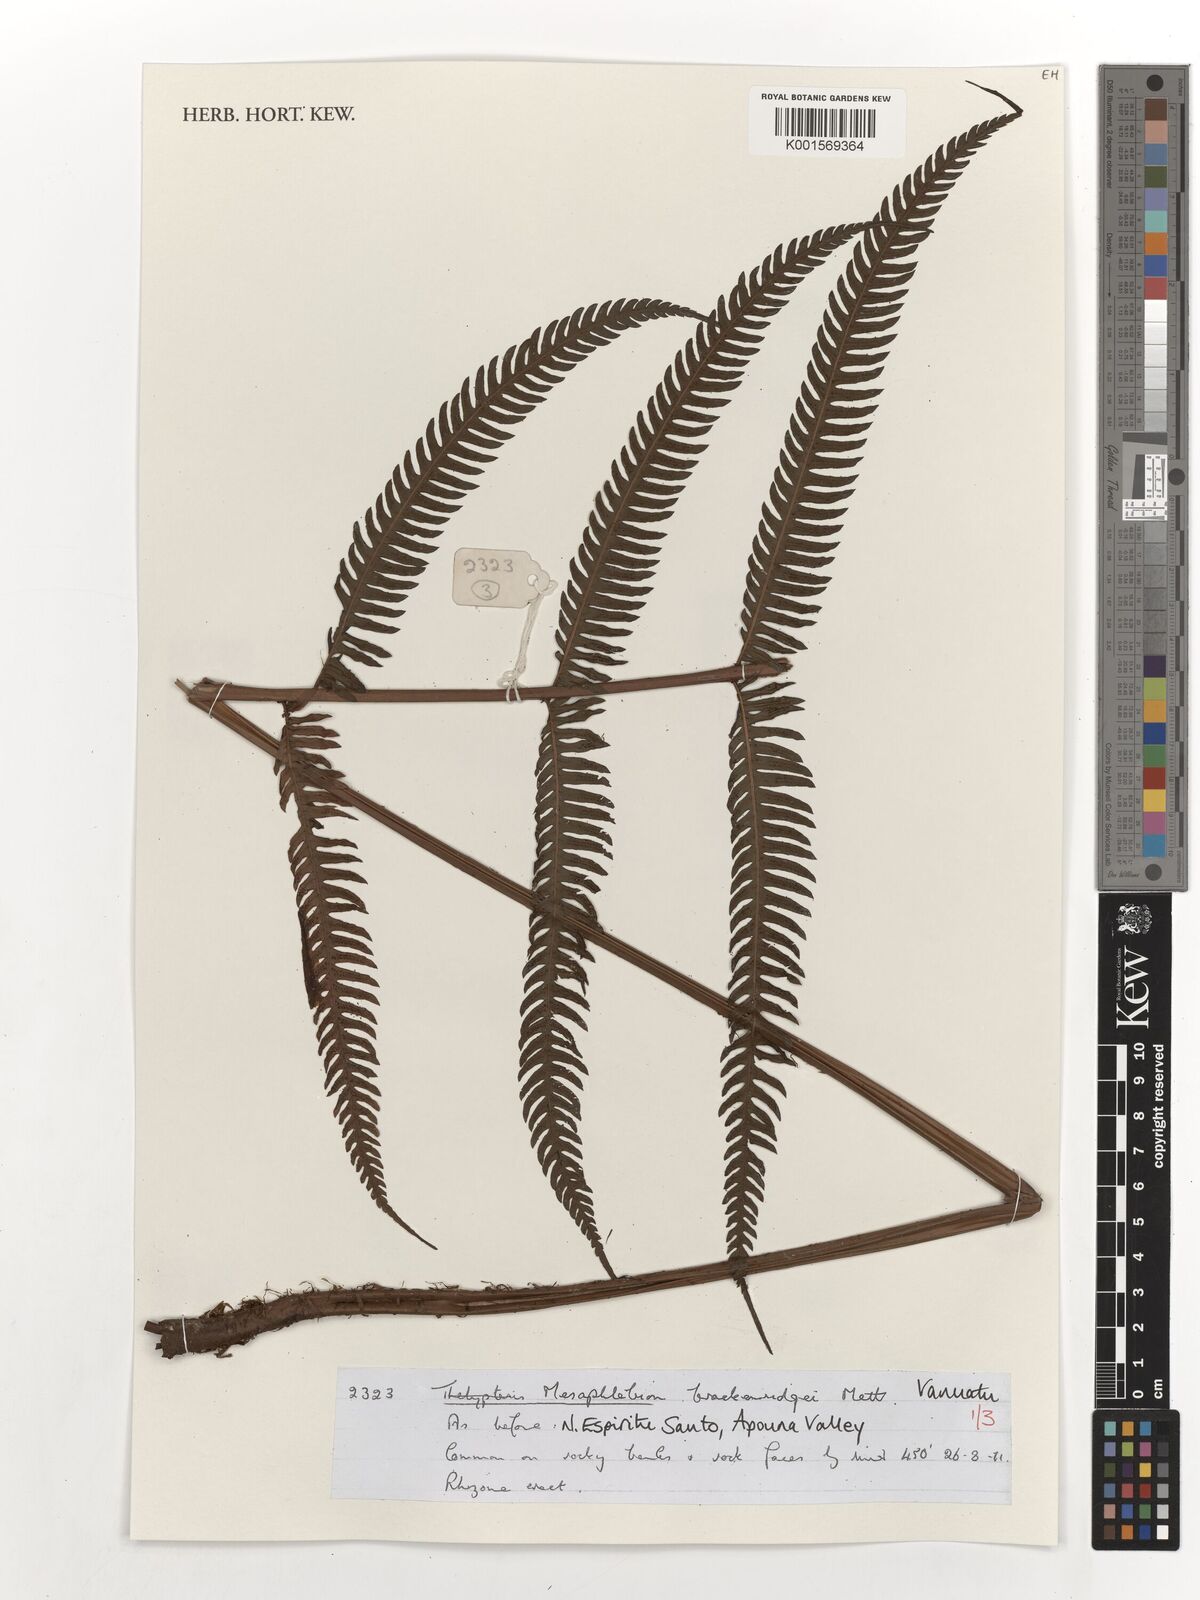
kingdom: Plantae
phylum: Tracheophyta
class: Polypodiopsida
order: Polypodiales
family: Thelypteridaceae
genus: Mesophlebion
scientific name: Mesophlebion
